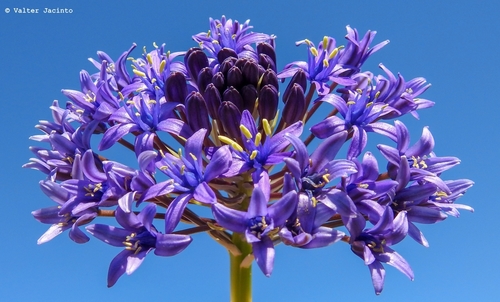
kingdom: Plantae
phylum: Tracheophyta
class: Liliopsida
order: Asparagales
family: Asparagaceae
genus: Scilla
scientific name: Scilla peruviana
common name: Portuguese squill
